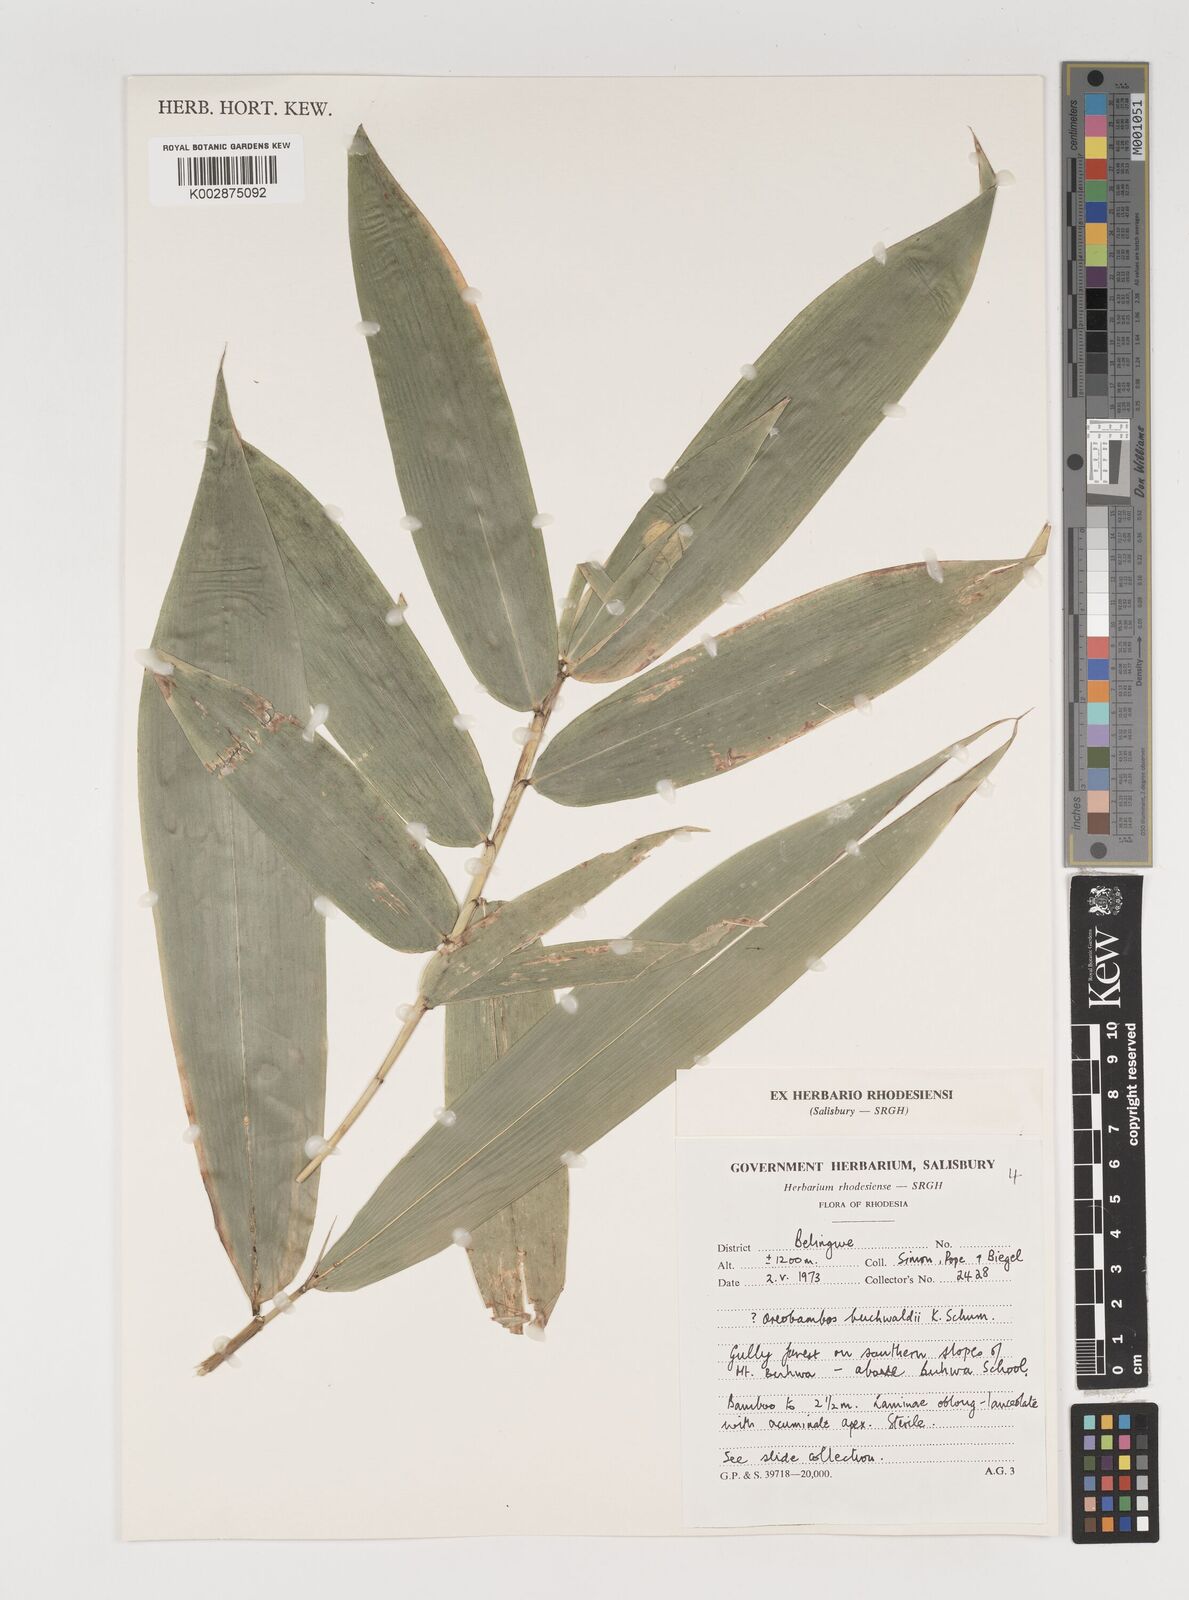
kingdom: Plantae
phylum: Tracheophyta
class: Liliopsida
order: Poales
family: Poaceae
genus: Oreobambos
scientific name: Oreobambos buchwaldii
